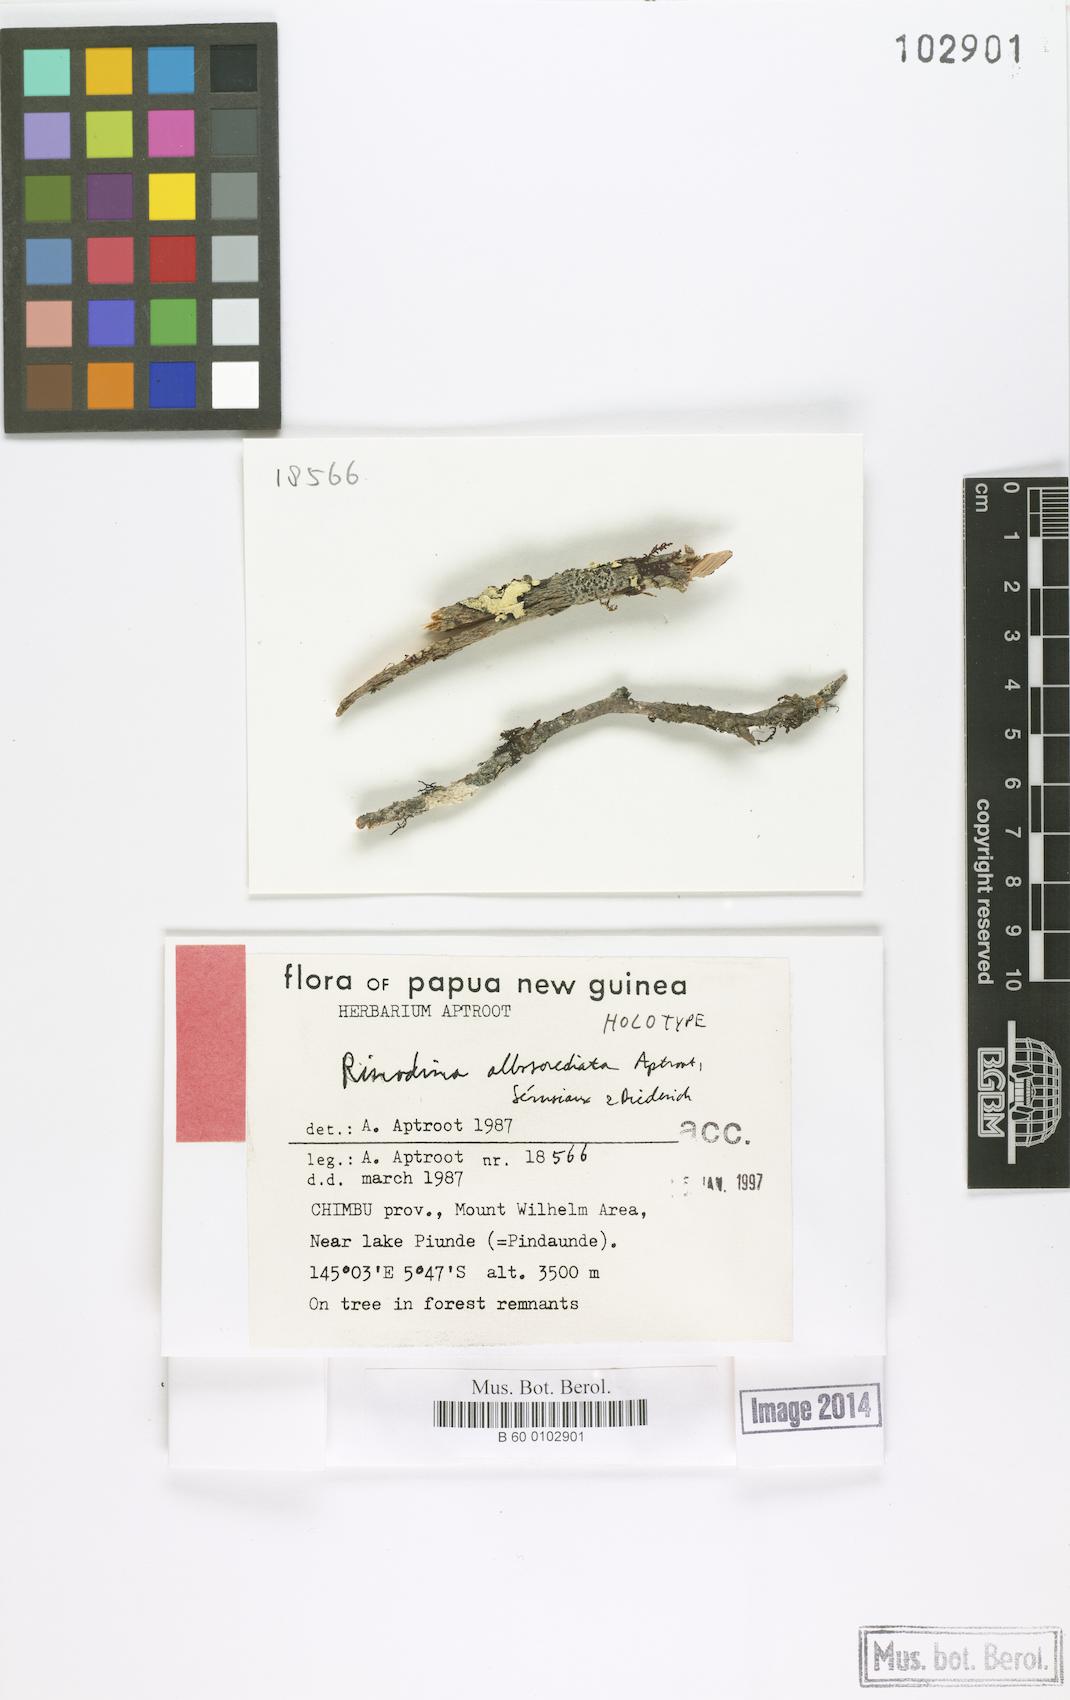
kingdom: Fungi
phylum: Ascomycota
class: Lecanoromycetes
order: Caliciales
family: Physciaceae
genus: Rinodina
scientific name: Rinodina
